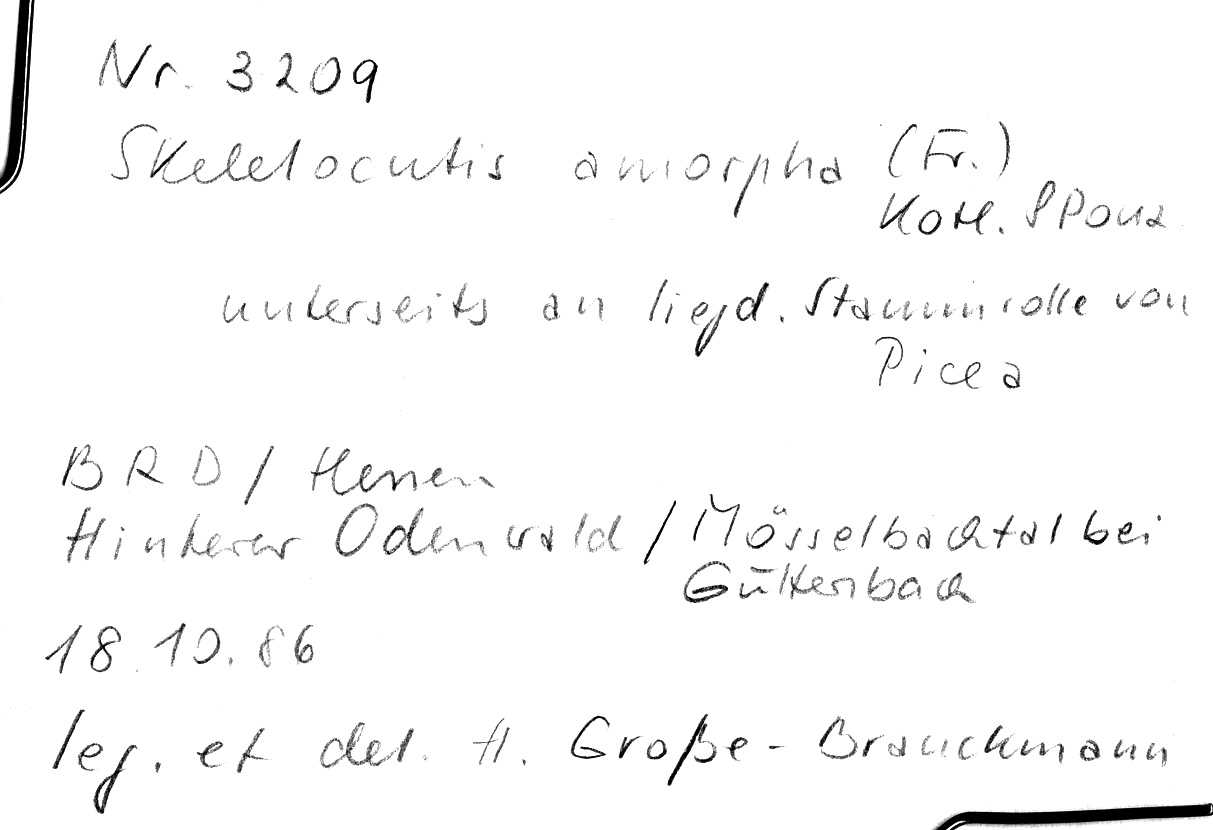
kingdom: Plantae
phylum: Tracheophyta
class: Pinopsida
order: Pinales
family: Pinaceae
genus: Picea
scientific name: Picea
